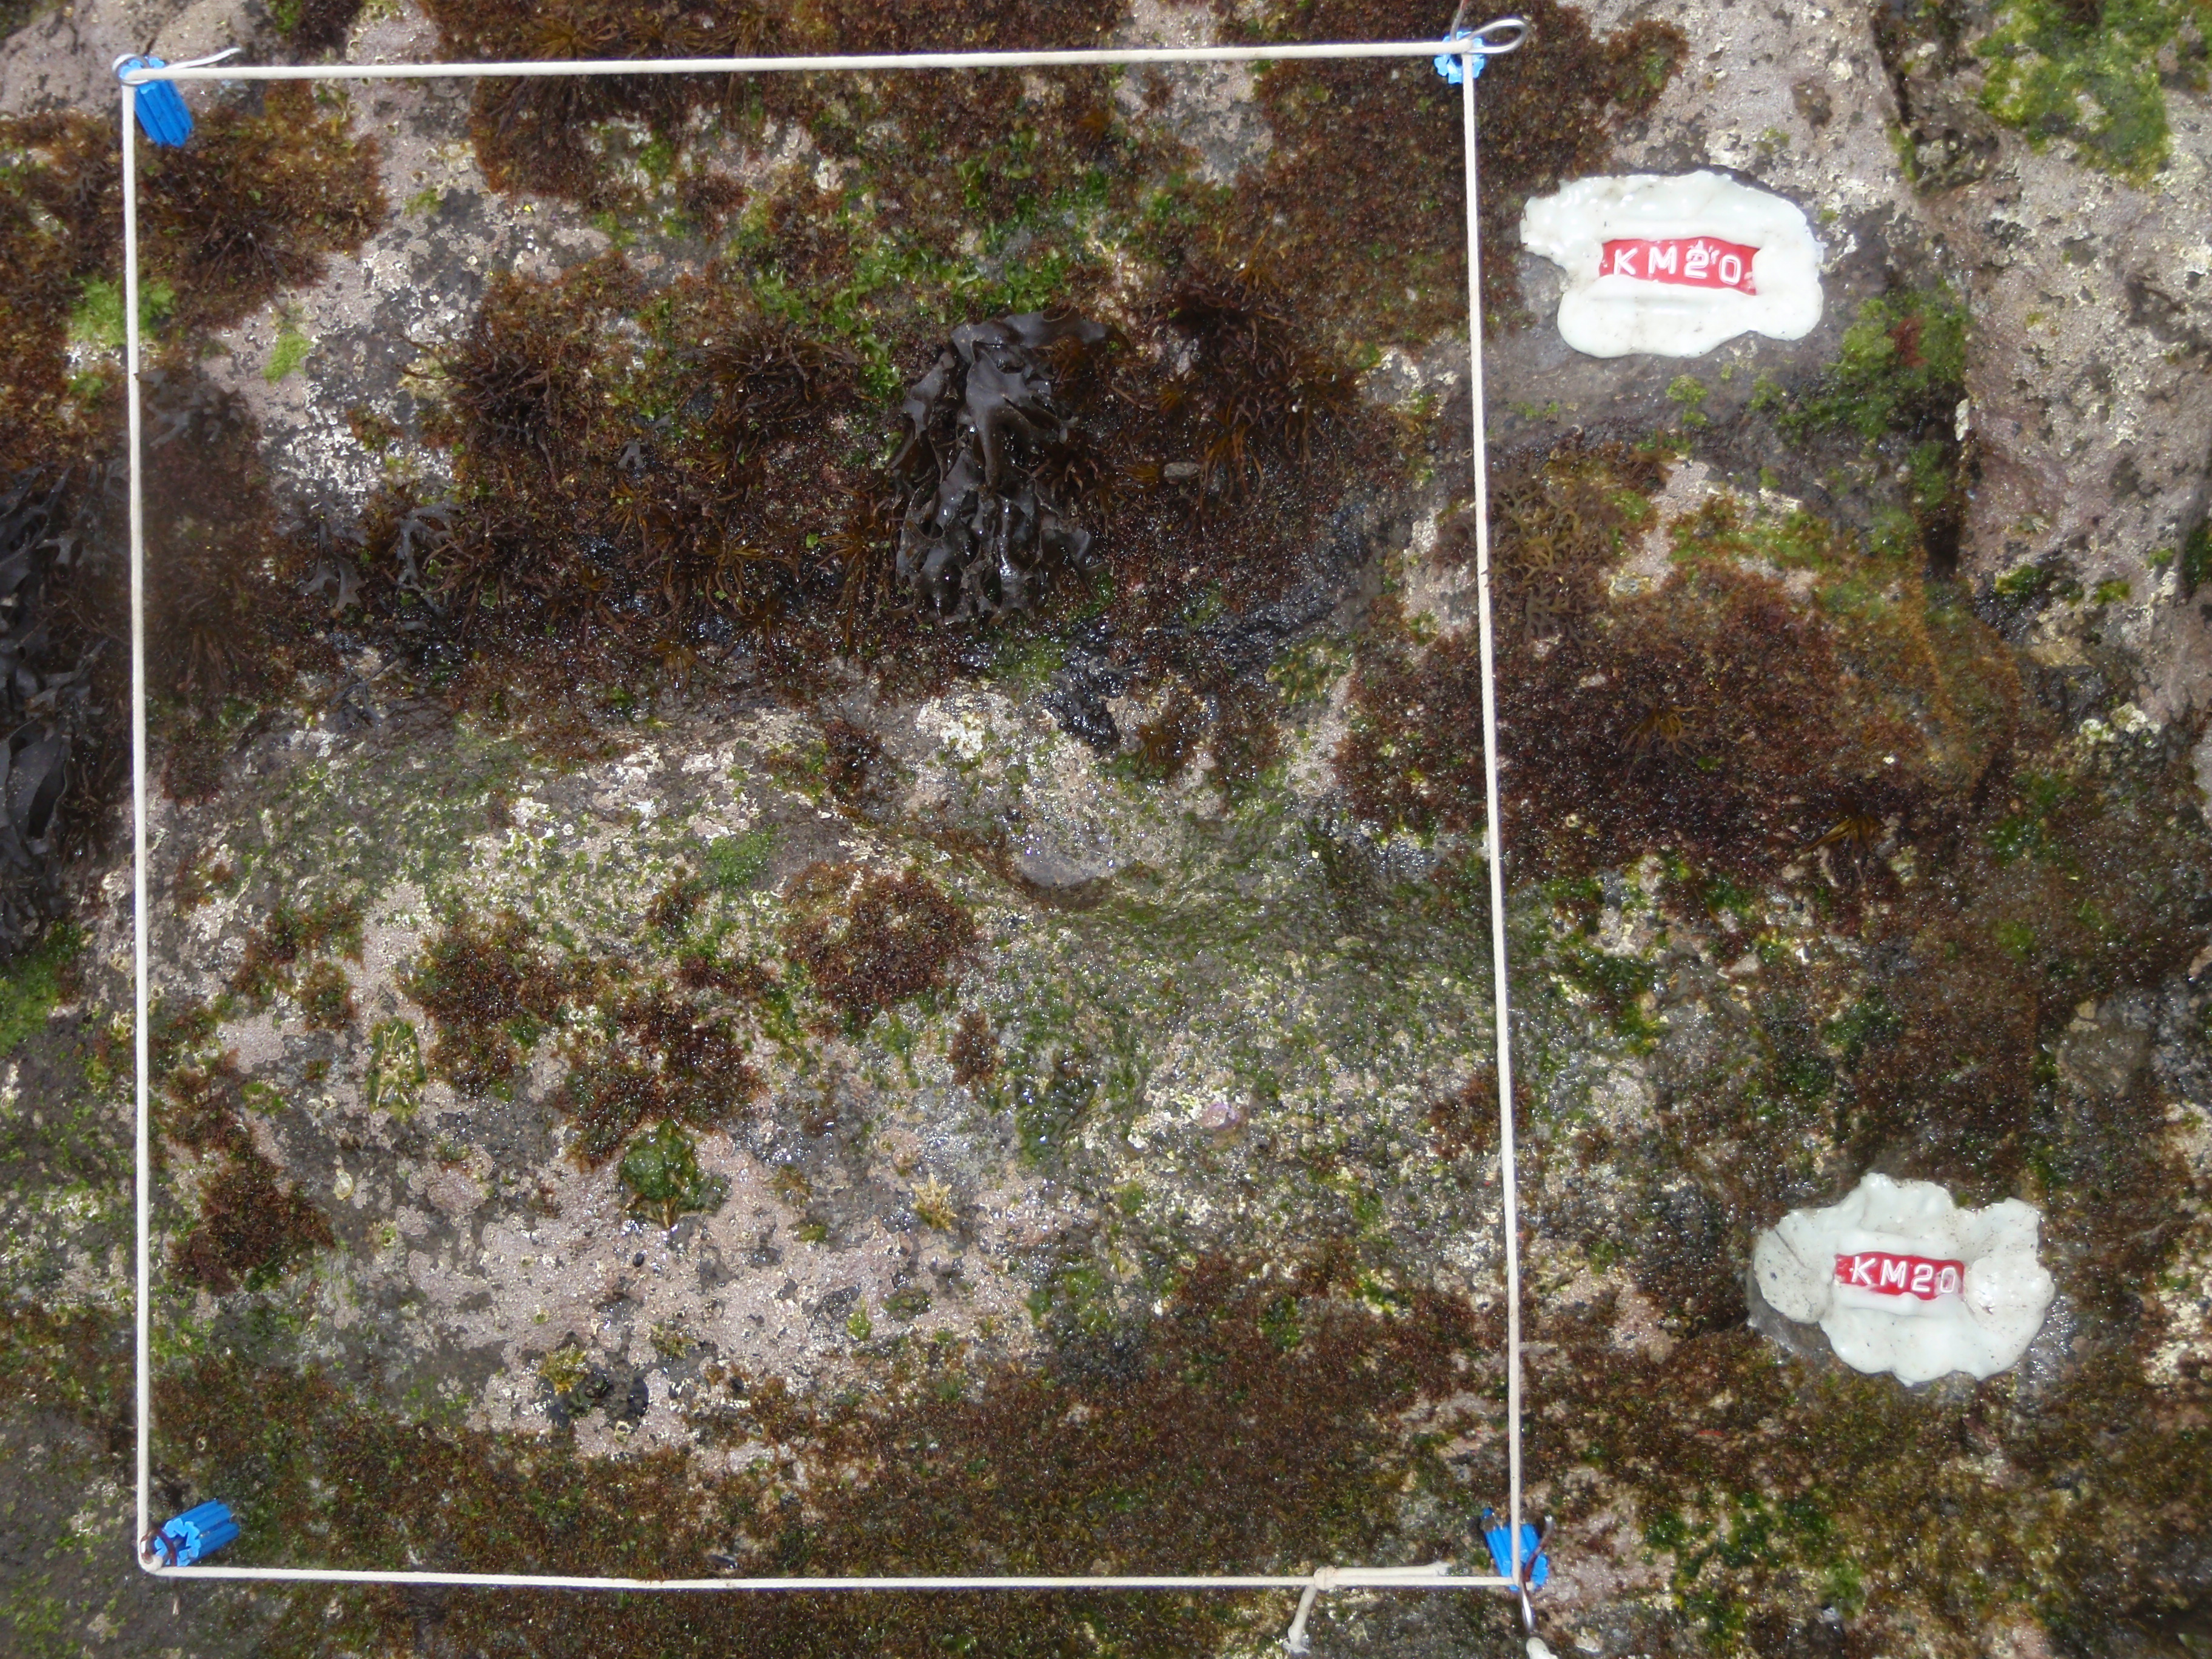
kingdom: Animalia
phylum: Arthropoda
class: Maxillopoda
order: Sessilia
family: Chthamalidae
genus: Chthamalus
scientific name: Chthamalus challengeri
